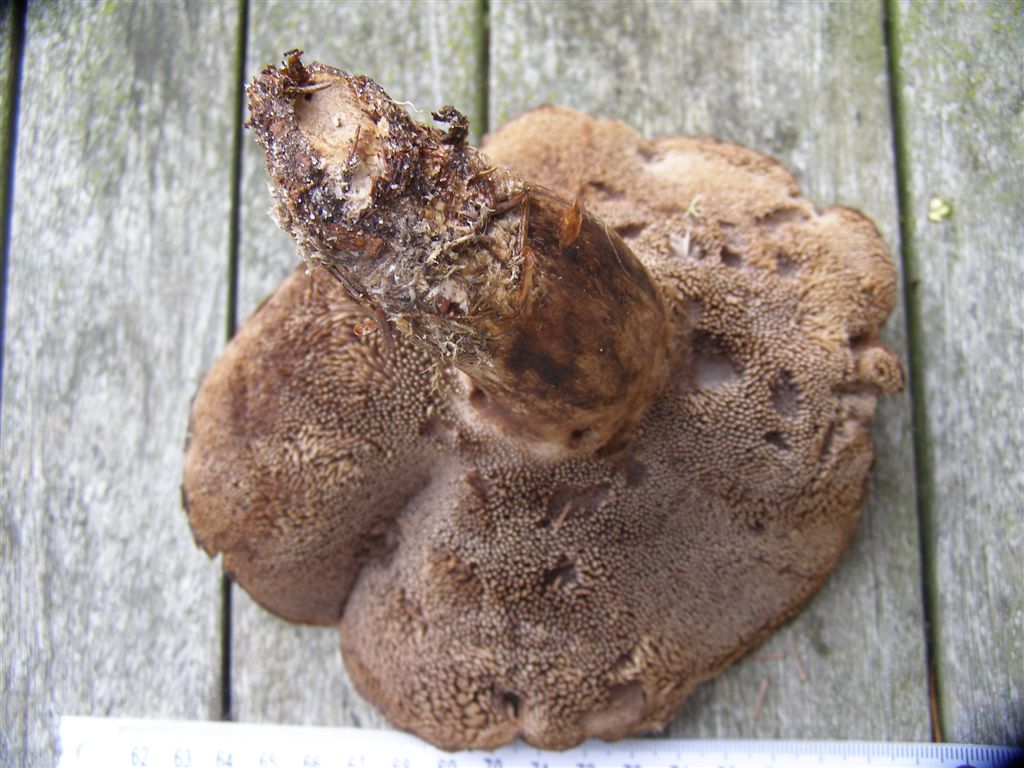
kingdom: Fungi
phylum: Basidiomycota
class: Agaricomycetes
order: Thelephorales
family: Bankeraceae
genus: Sarcodon
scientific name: Sarcodon imbricatus
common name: skællet kødpigsvamp
